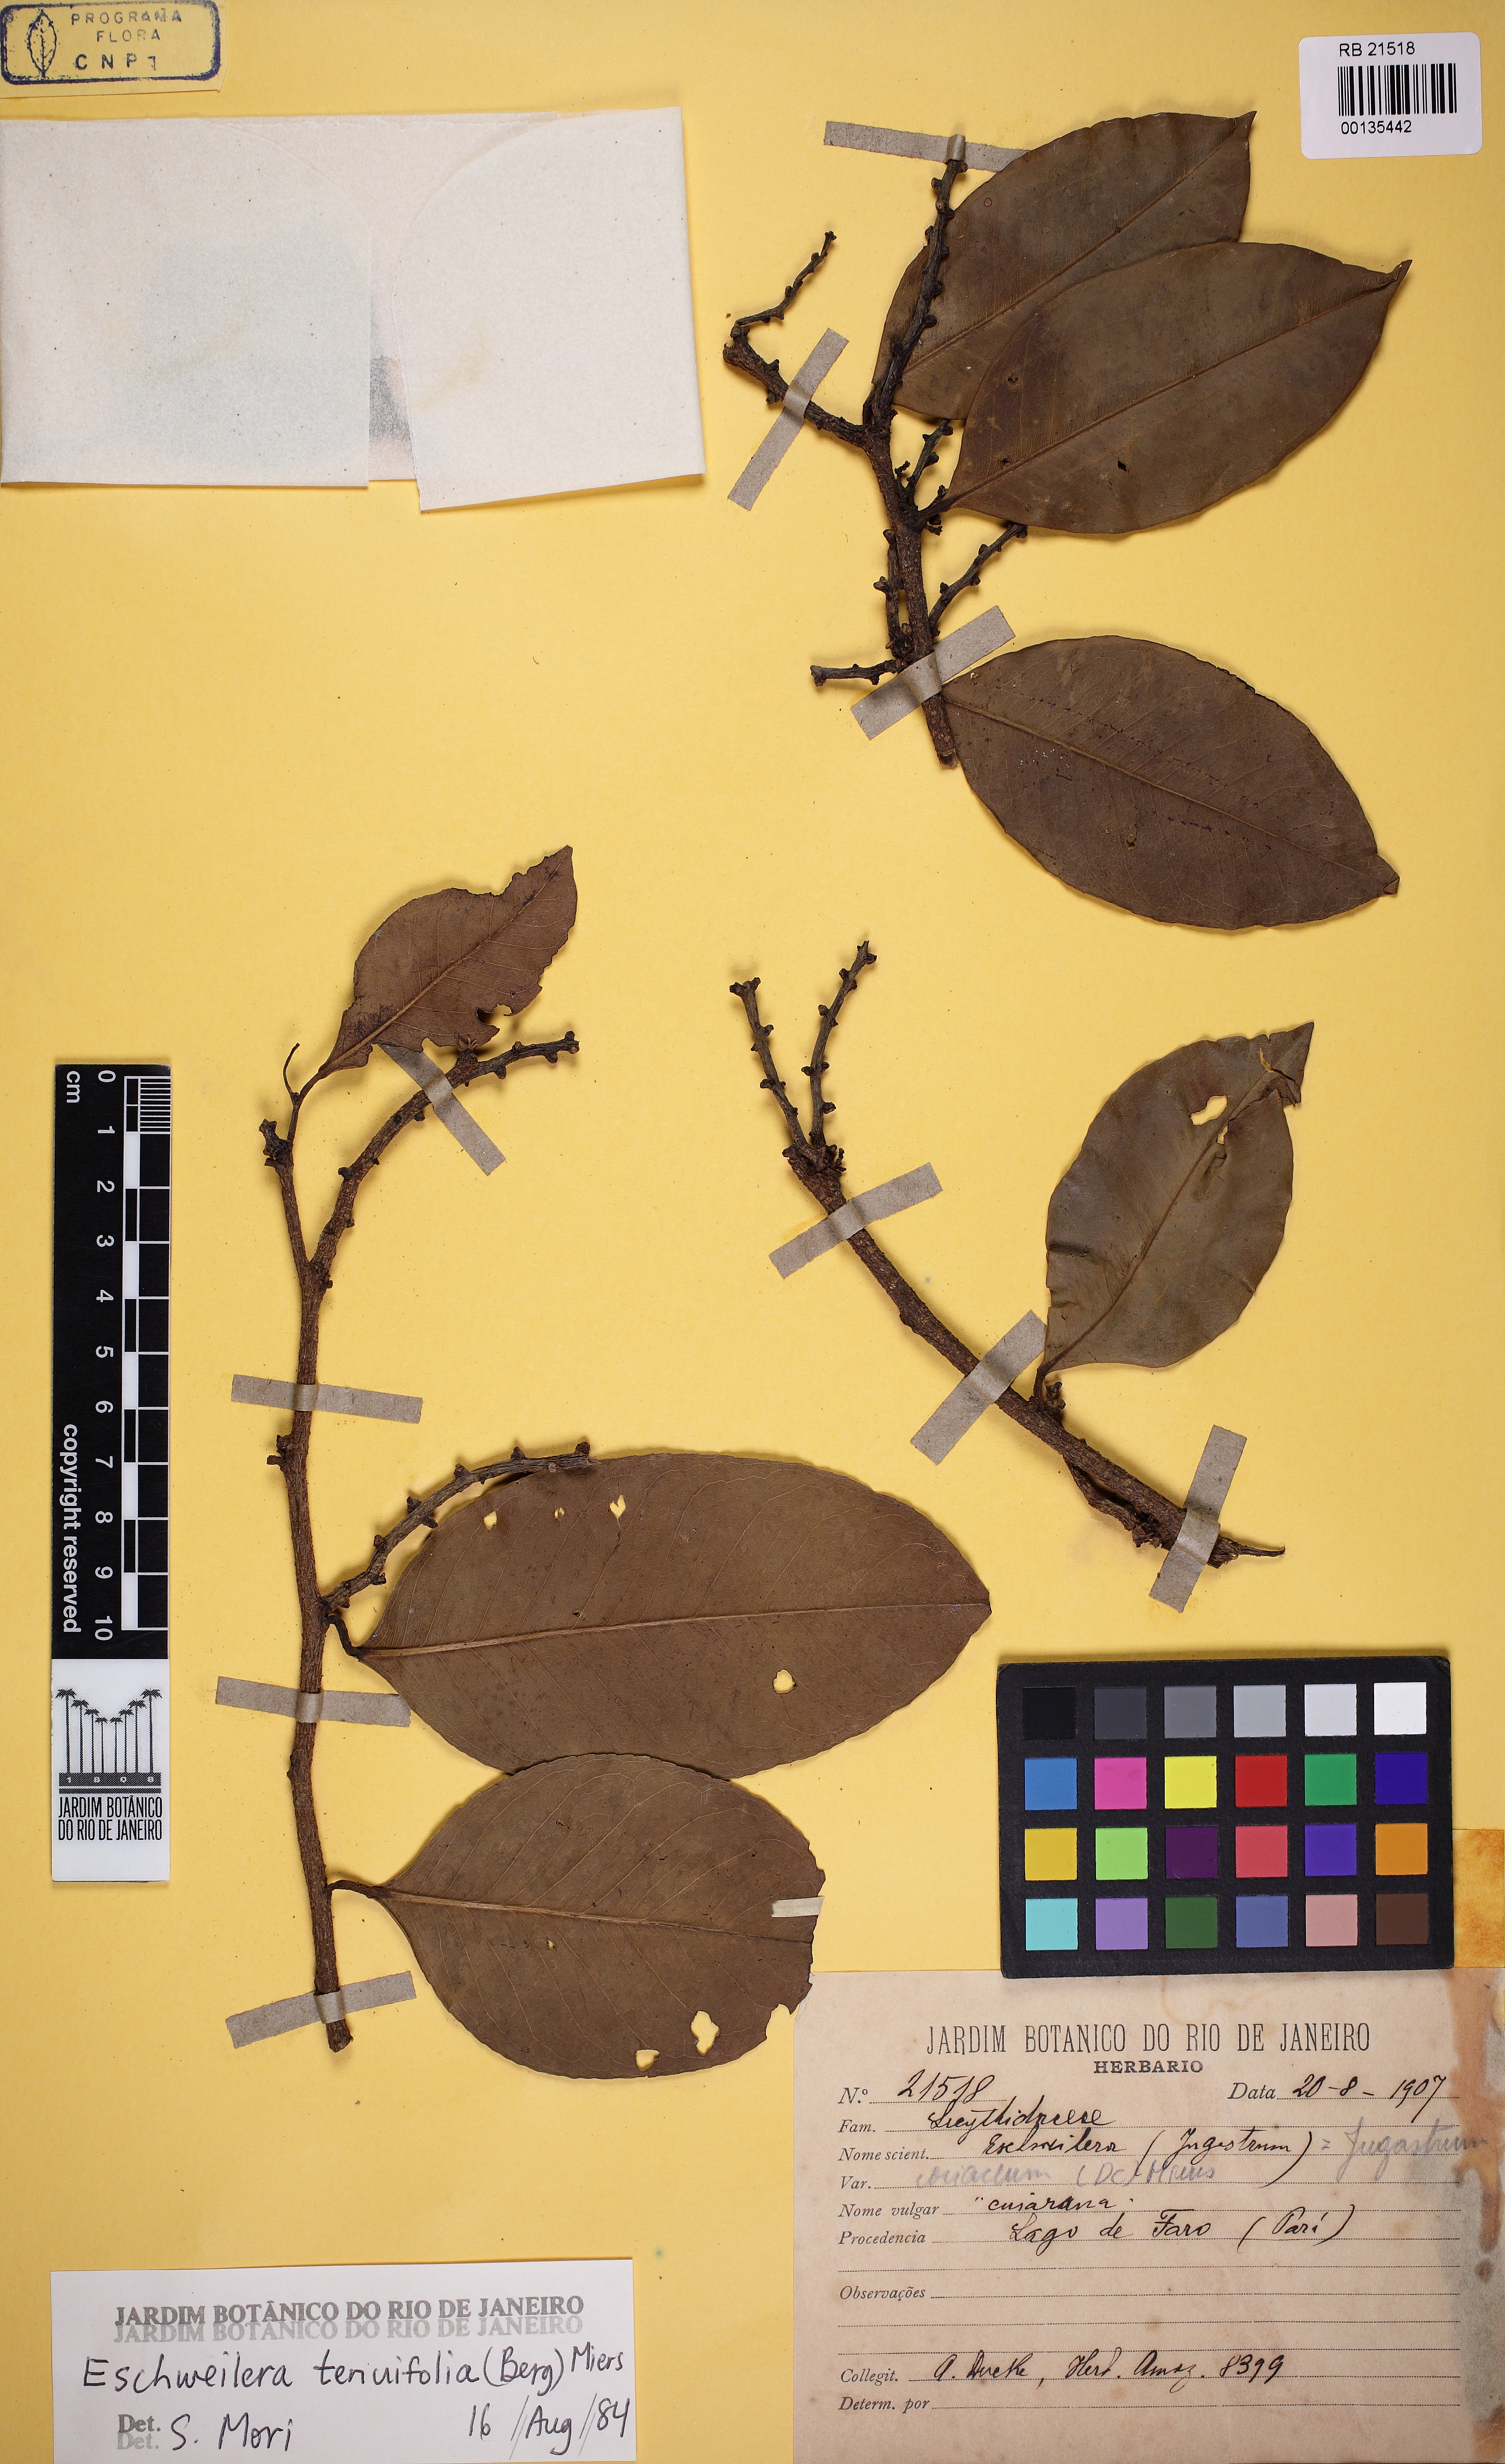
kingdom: Plantae
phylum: Tracheophyta
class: Magnoliopsida
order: Ericales
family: Lecythidaceae
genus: Eschweilera
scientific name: Eschweilera tenuifolia
